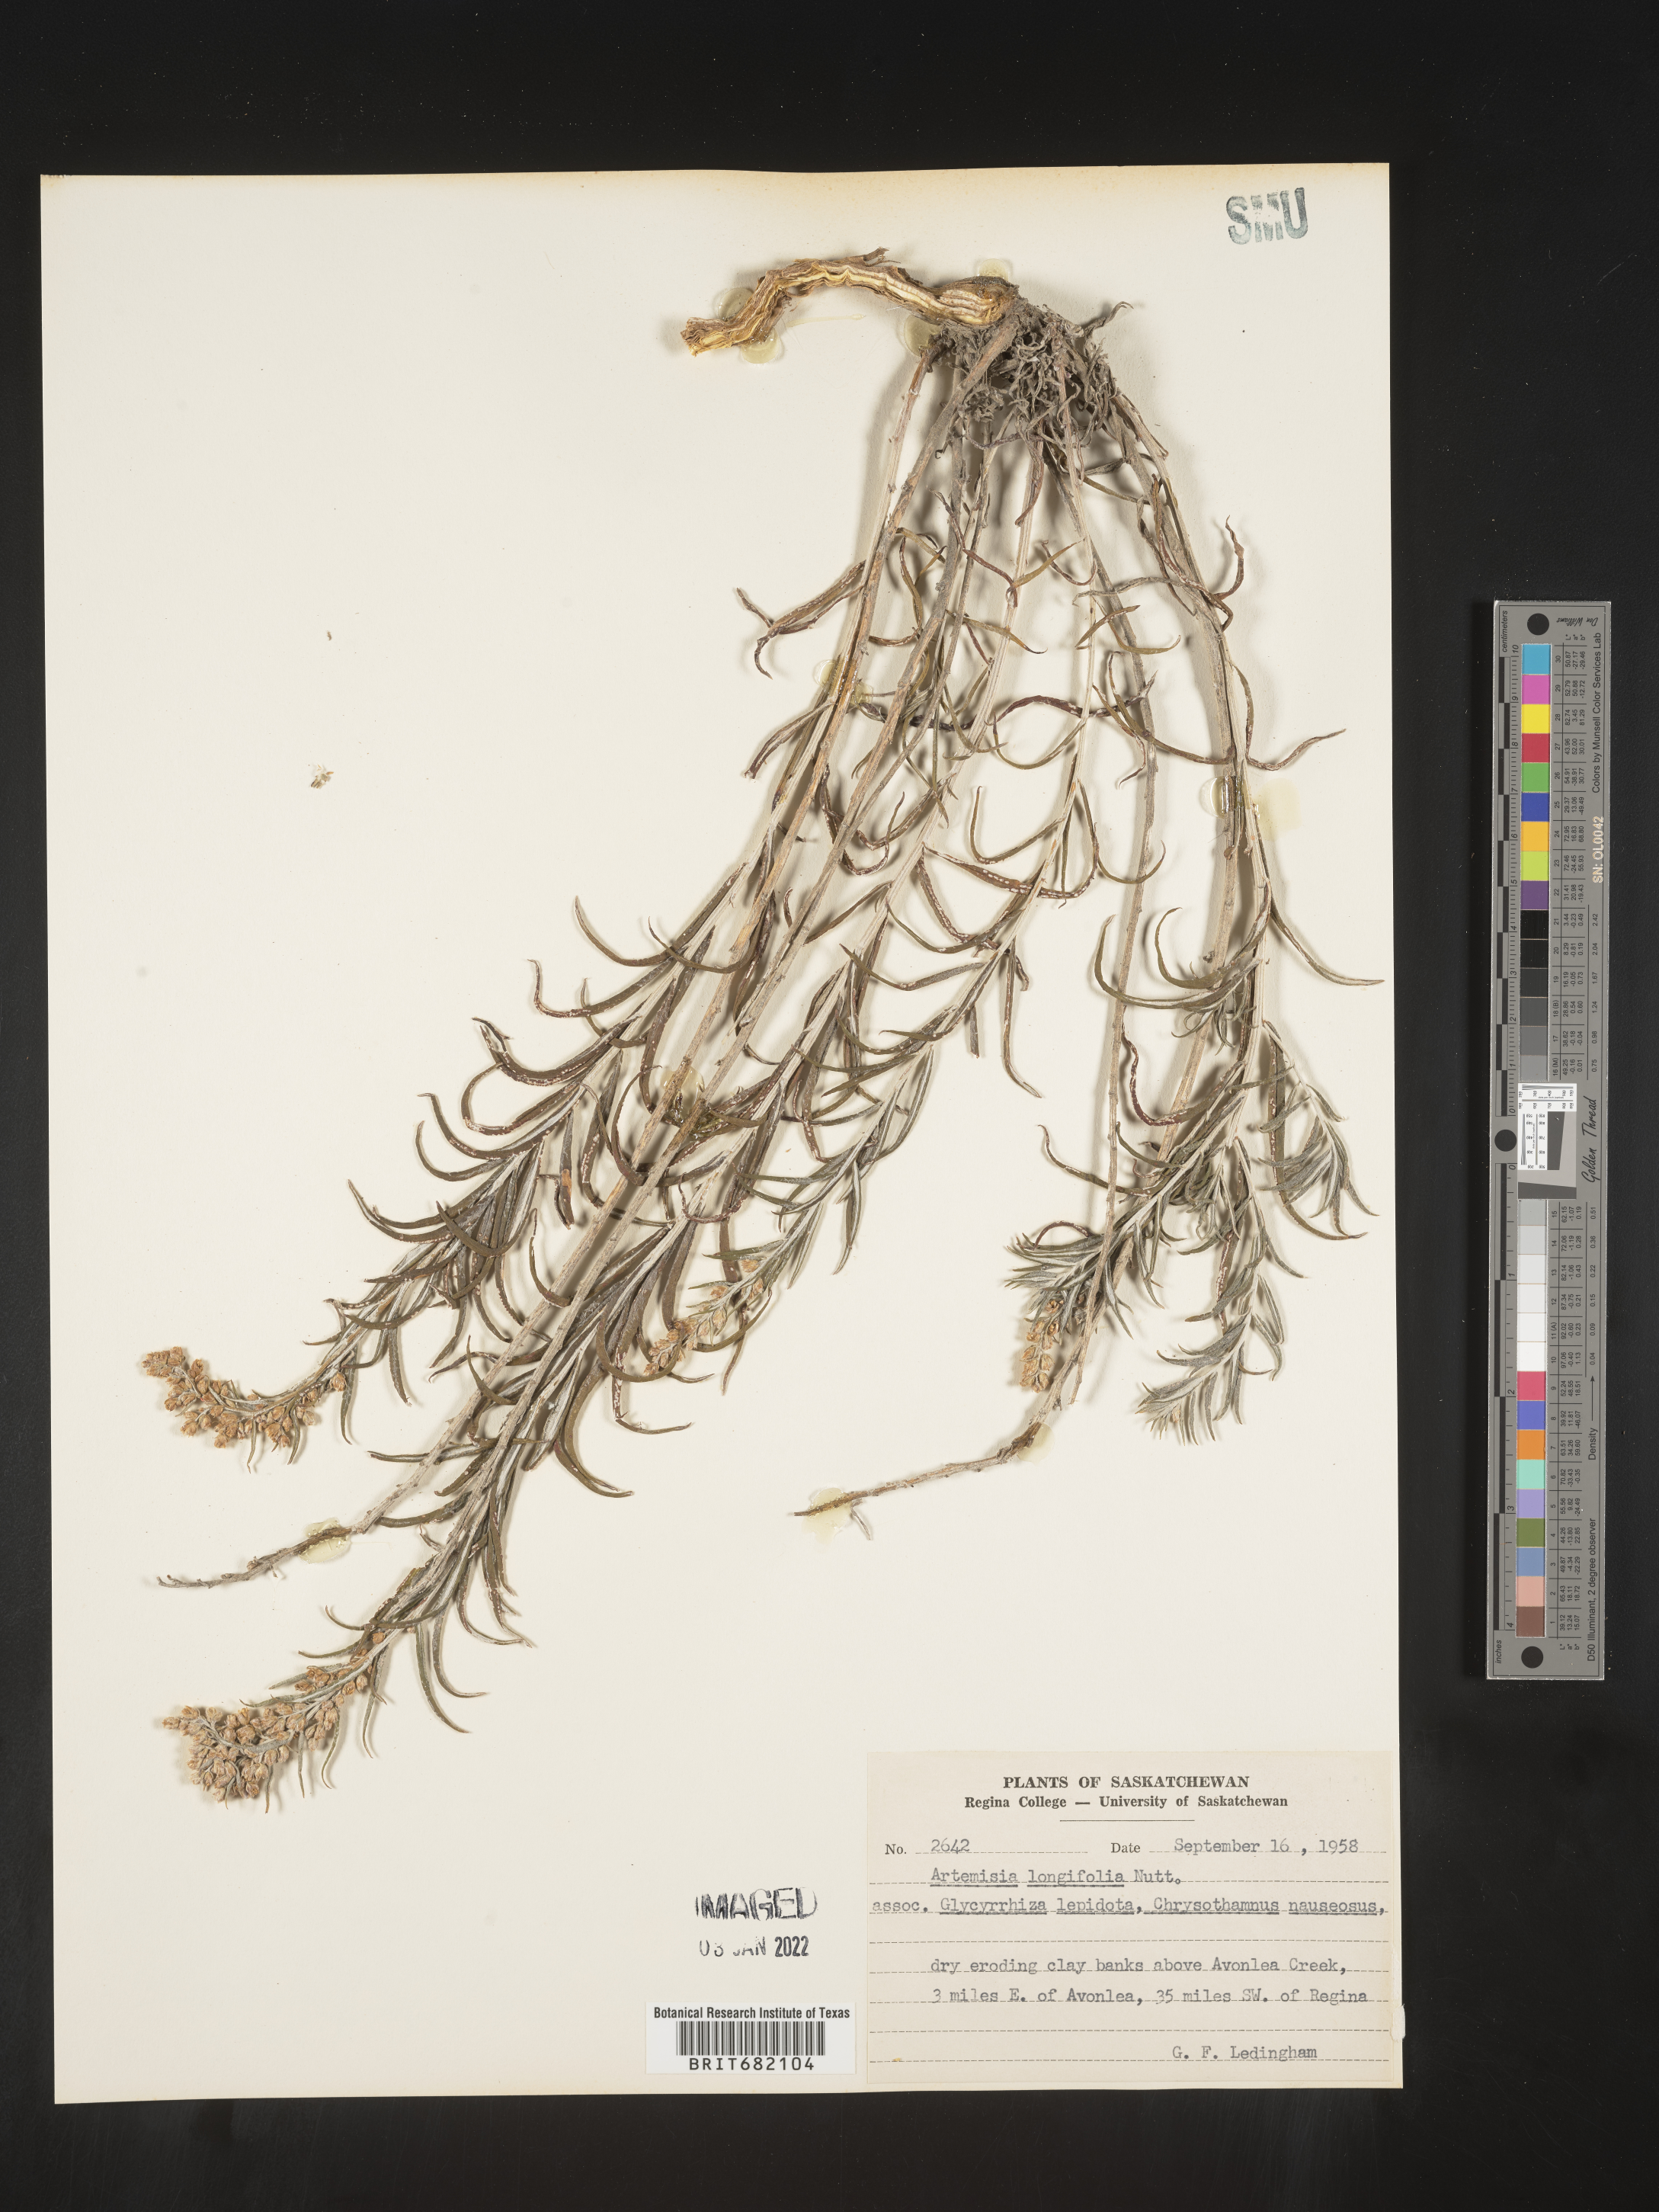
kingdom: Plantae
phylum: Tracheophyta
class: Magnoliopsida
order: Asterales
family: Asteraceae
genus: Artemisia
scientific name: Artemisia longifolia
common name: Long-leaved mugwort
